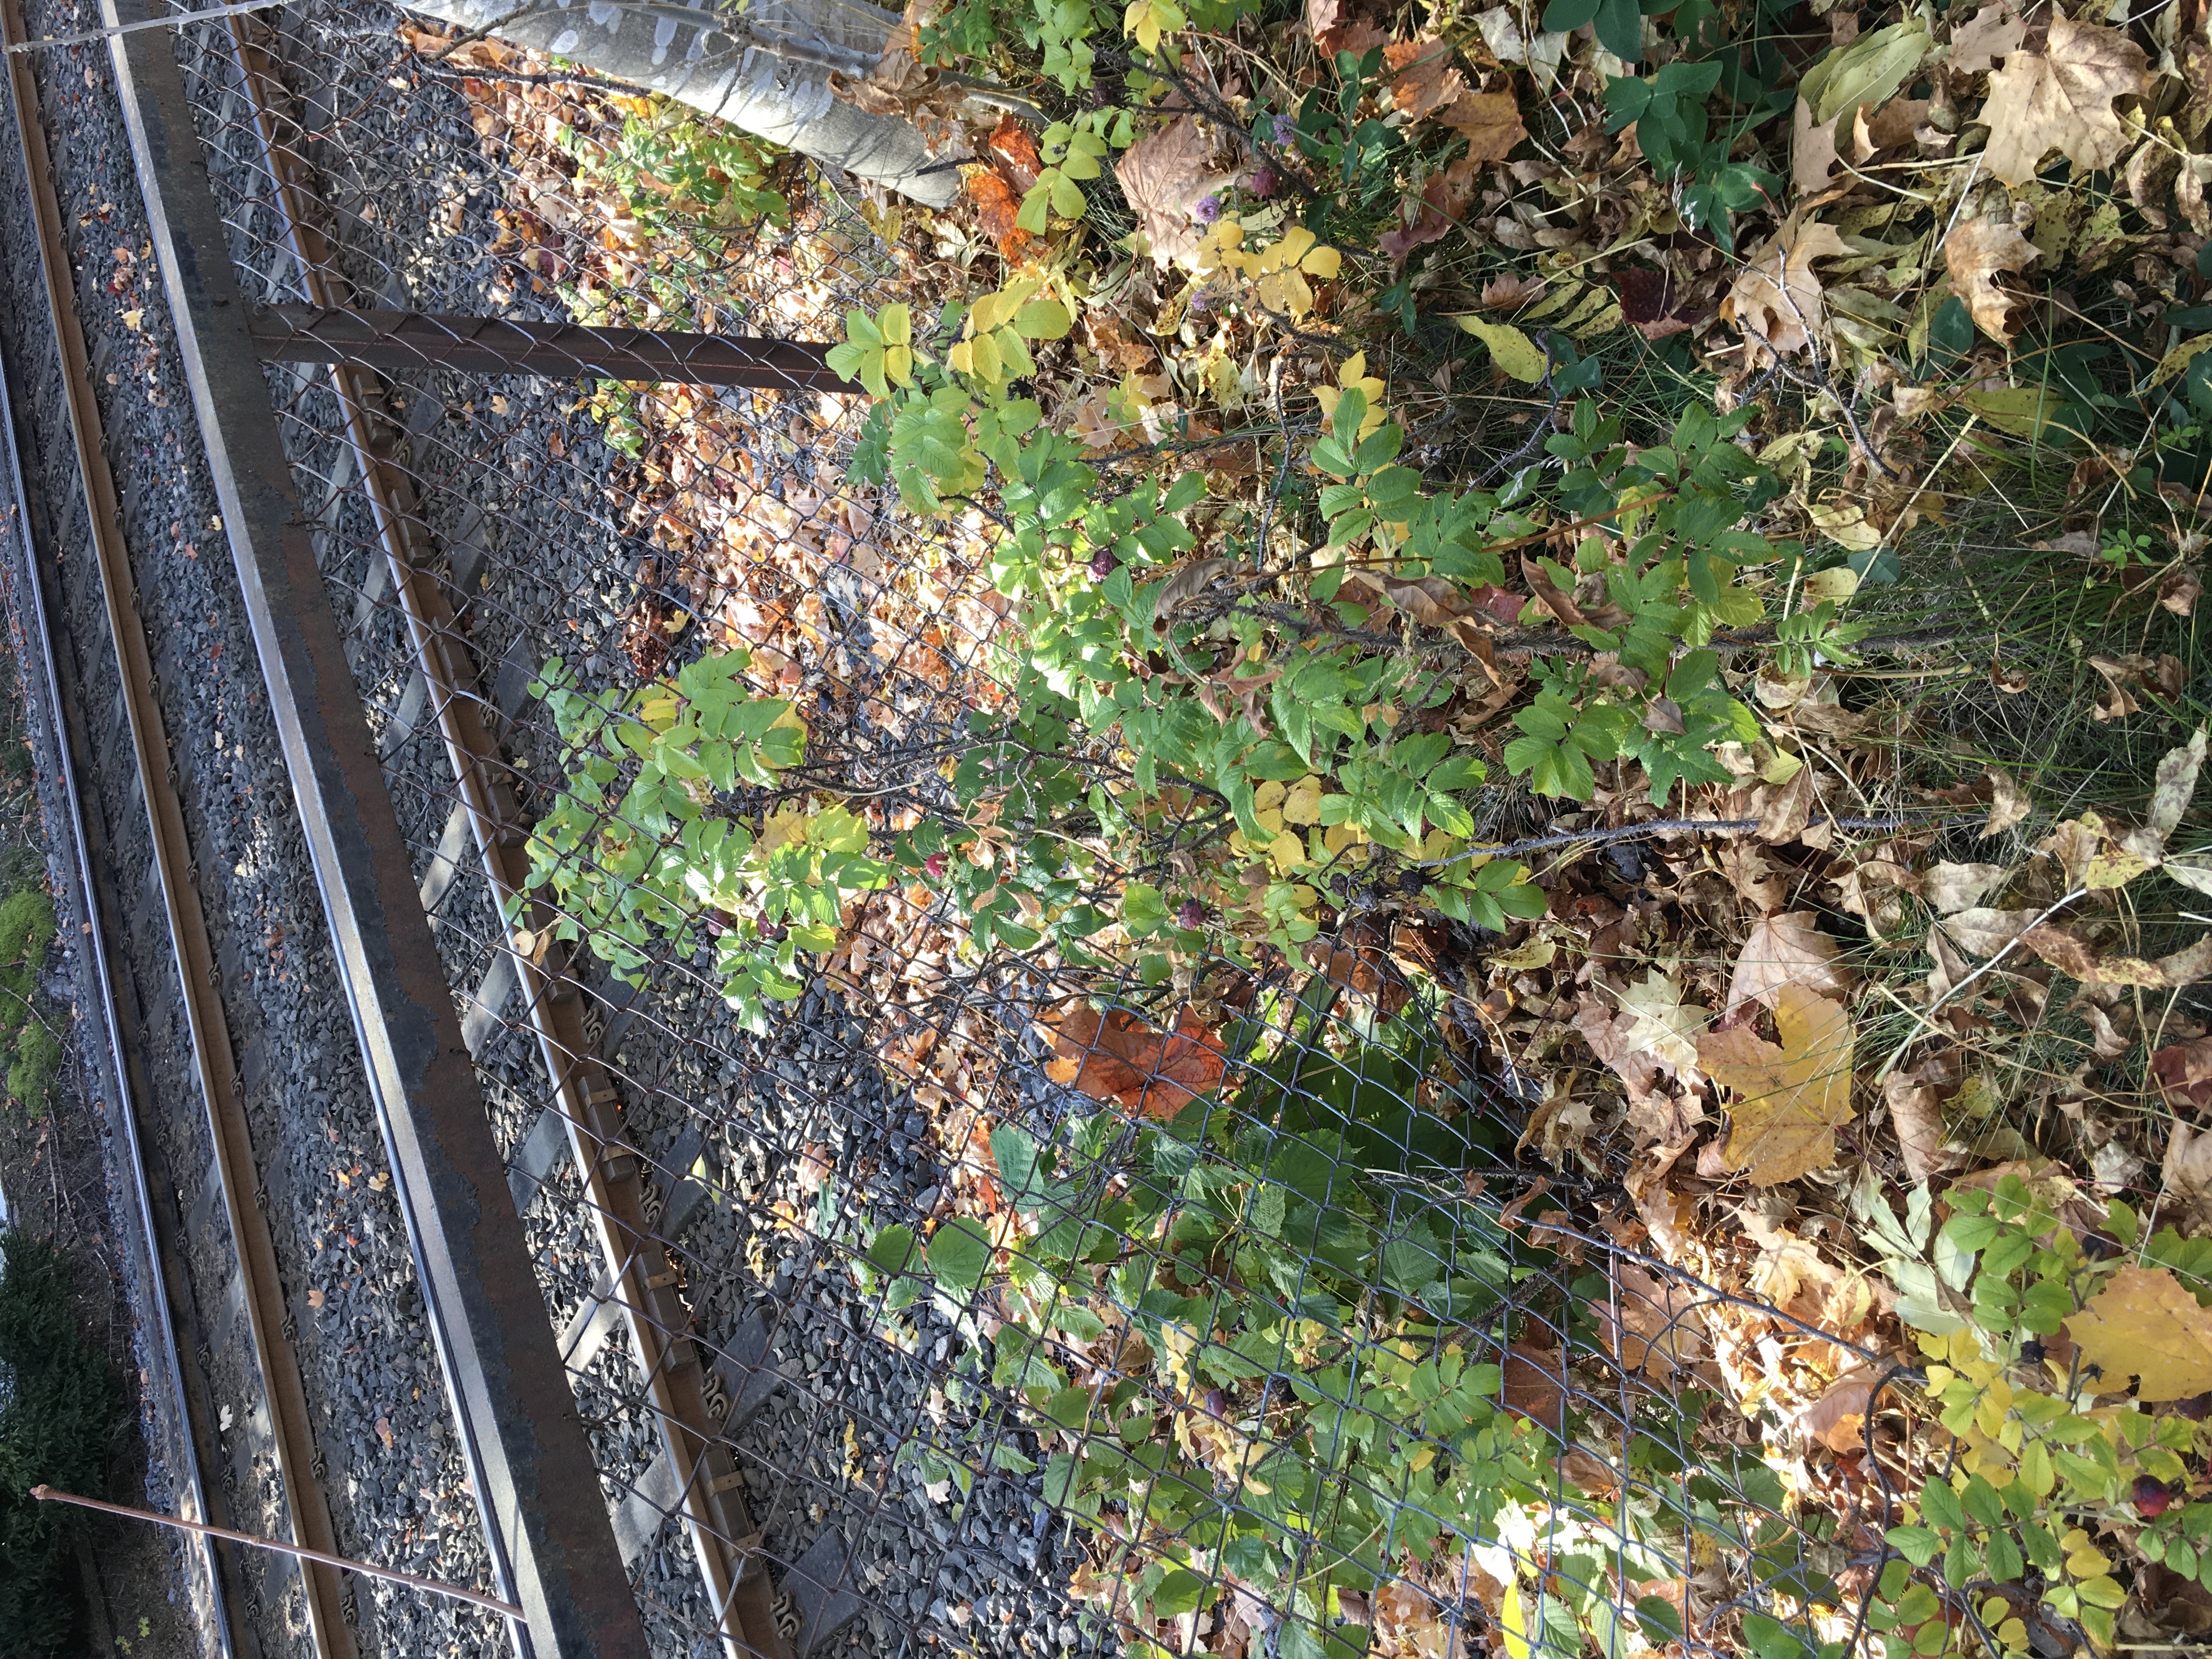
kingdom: Plantae
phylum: Tracheophyta
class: Magnoliopsida
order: Rosales
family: Rosaceae
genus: Rosa
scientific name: Rosa rugosa
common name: rynkerose
